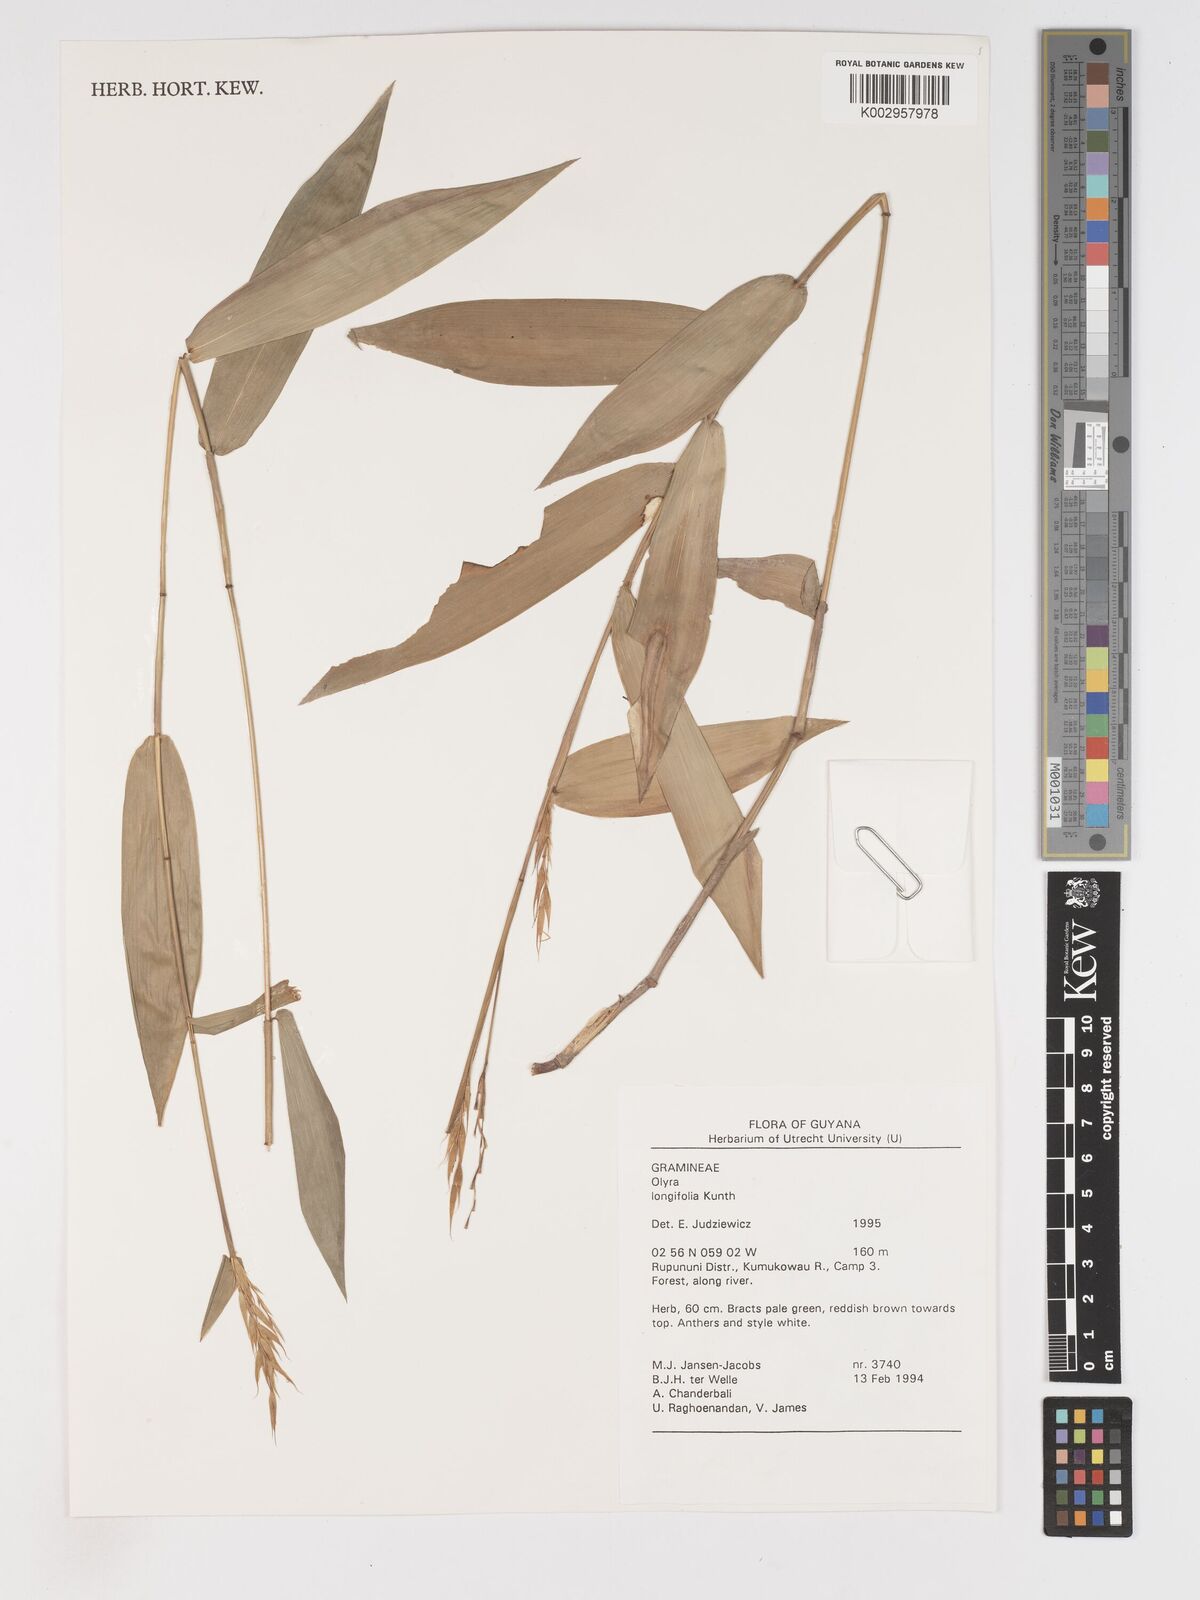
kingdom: Plantae
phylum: Tracheophyta
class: Liliopsida
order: Poales
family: Poaceae
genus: Olyra
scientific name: Olyra longifolia
